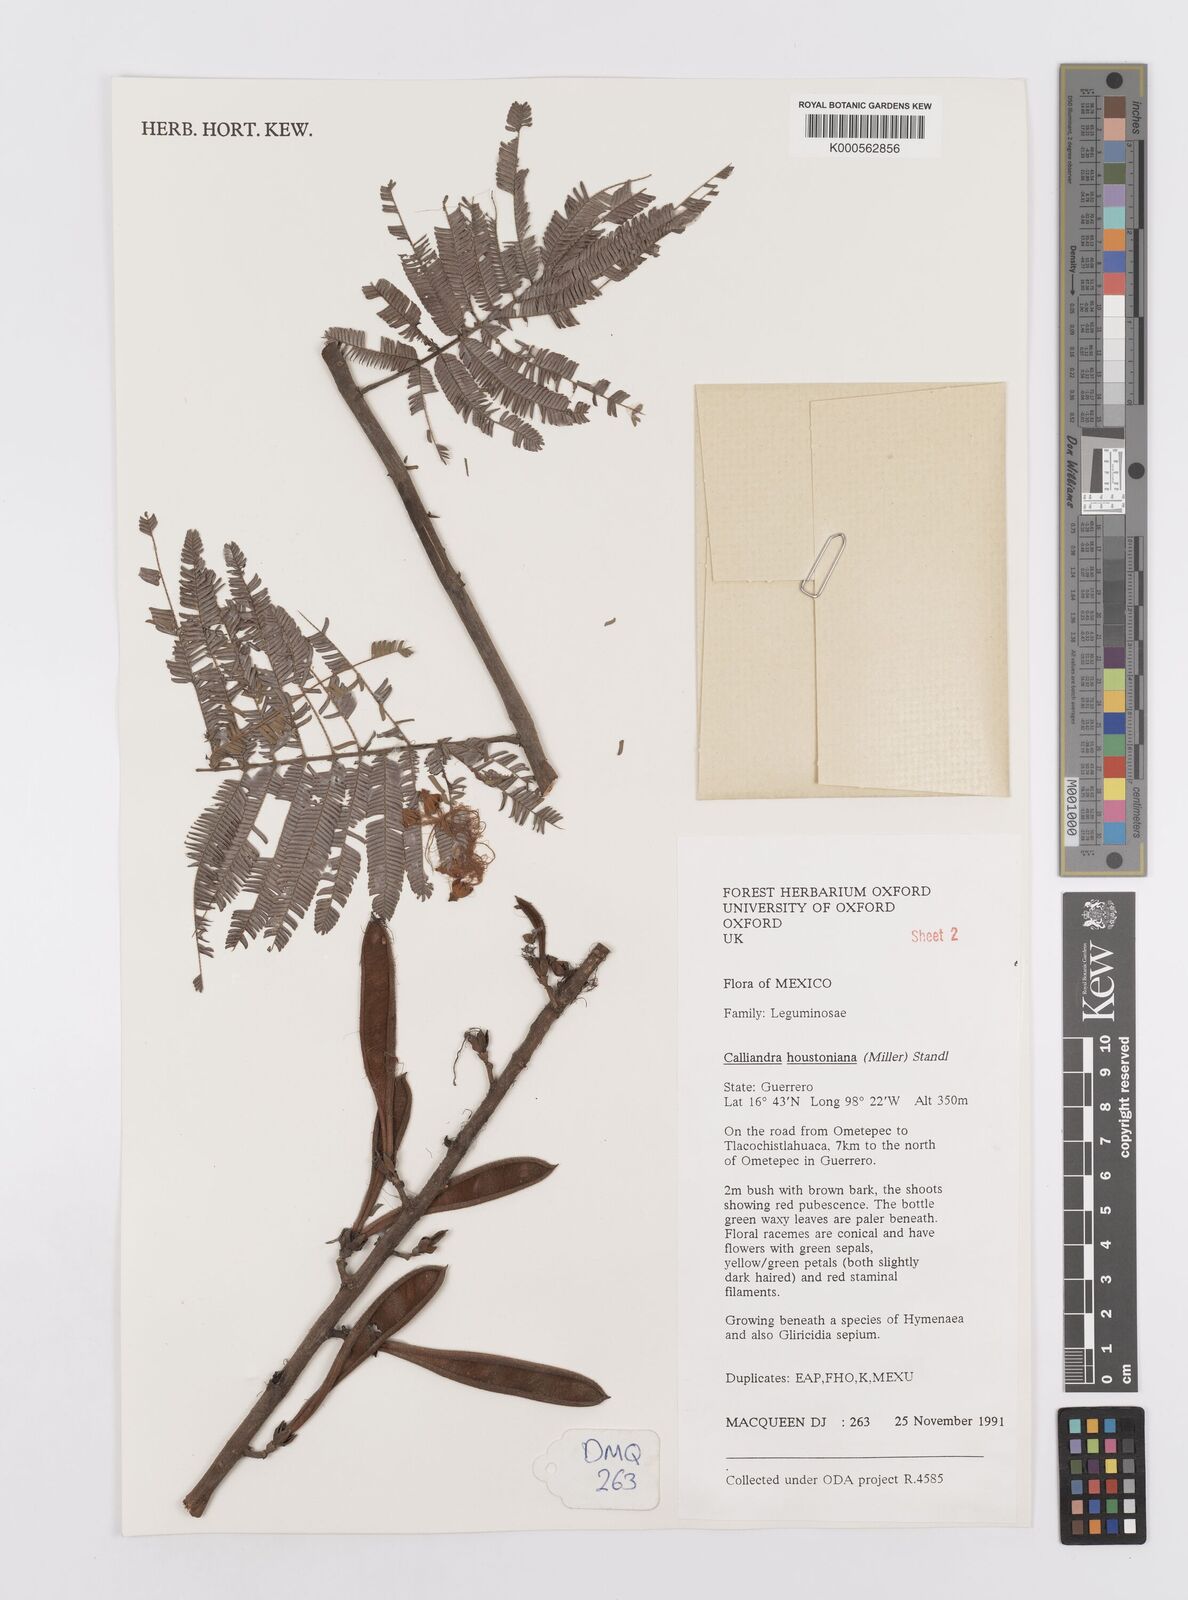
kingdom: Plantae
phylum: Tracheophyta
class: Magnoliopsida
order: Fabales
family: Fabaceae
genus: Calliandra
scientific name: Calliandra houstoniana
